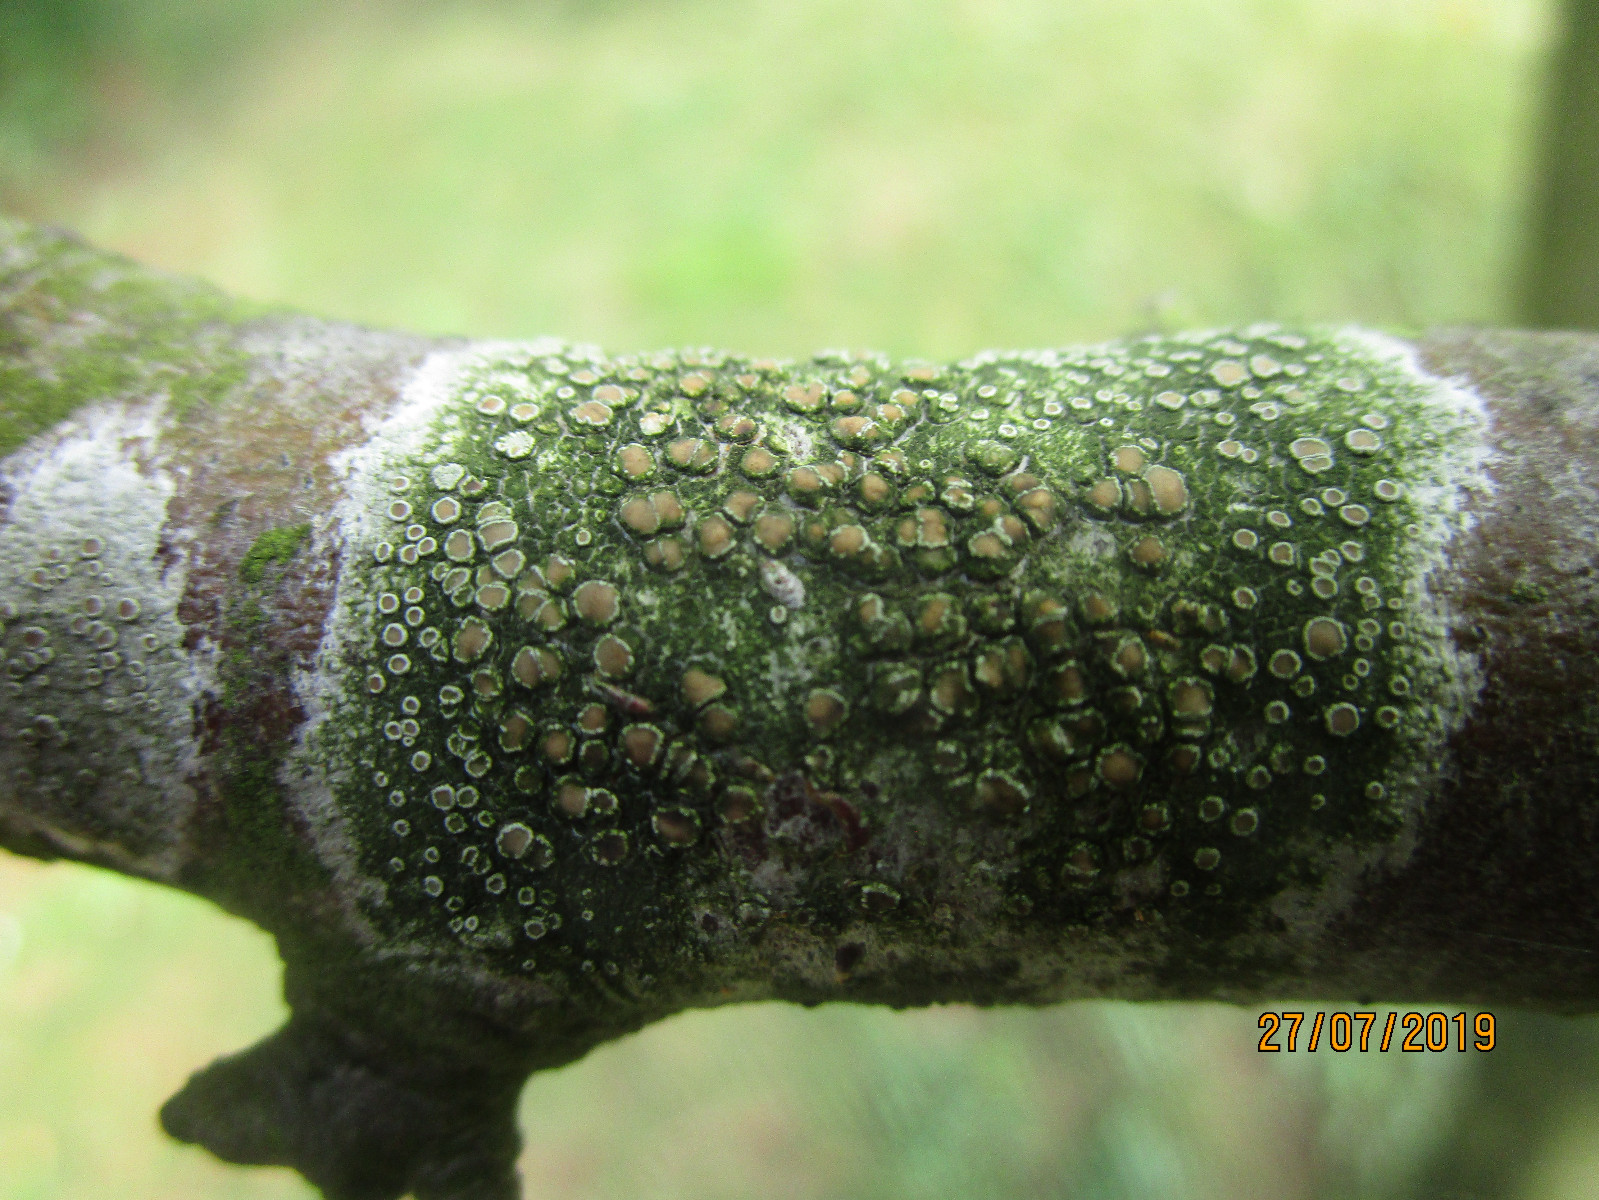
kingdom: Fungi
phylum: Ascomycota
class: Lecanoromycetes
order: Lecanorales
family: Lecanoraceae
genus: Lecanora
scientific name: Lecanora chlarotera
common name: brun kantskivelav
